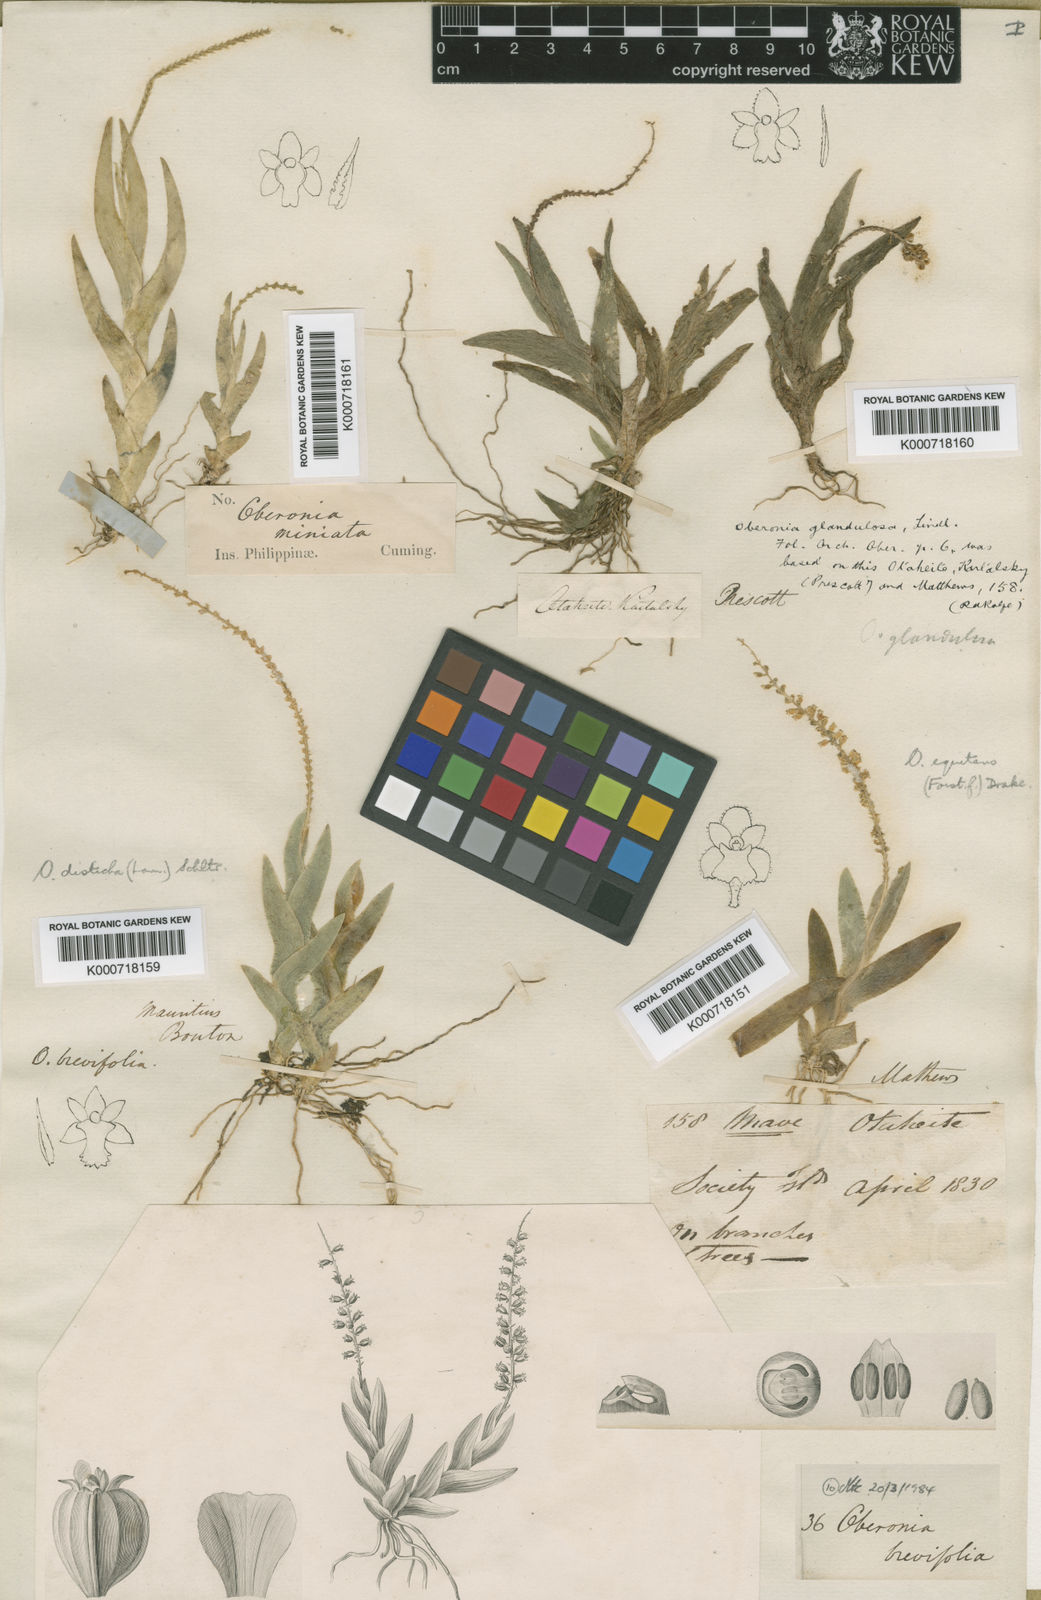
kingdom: Plantae
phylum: Tracheophyta
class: Liliopsida
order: Asparagales
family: Orchidaceae
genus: Oberonia
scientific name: Oberonia disticha
